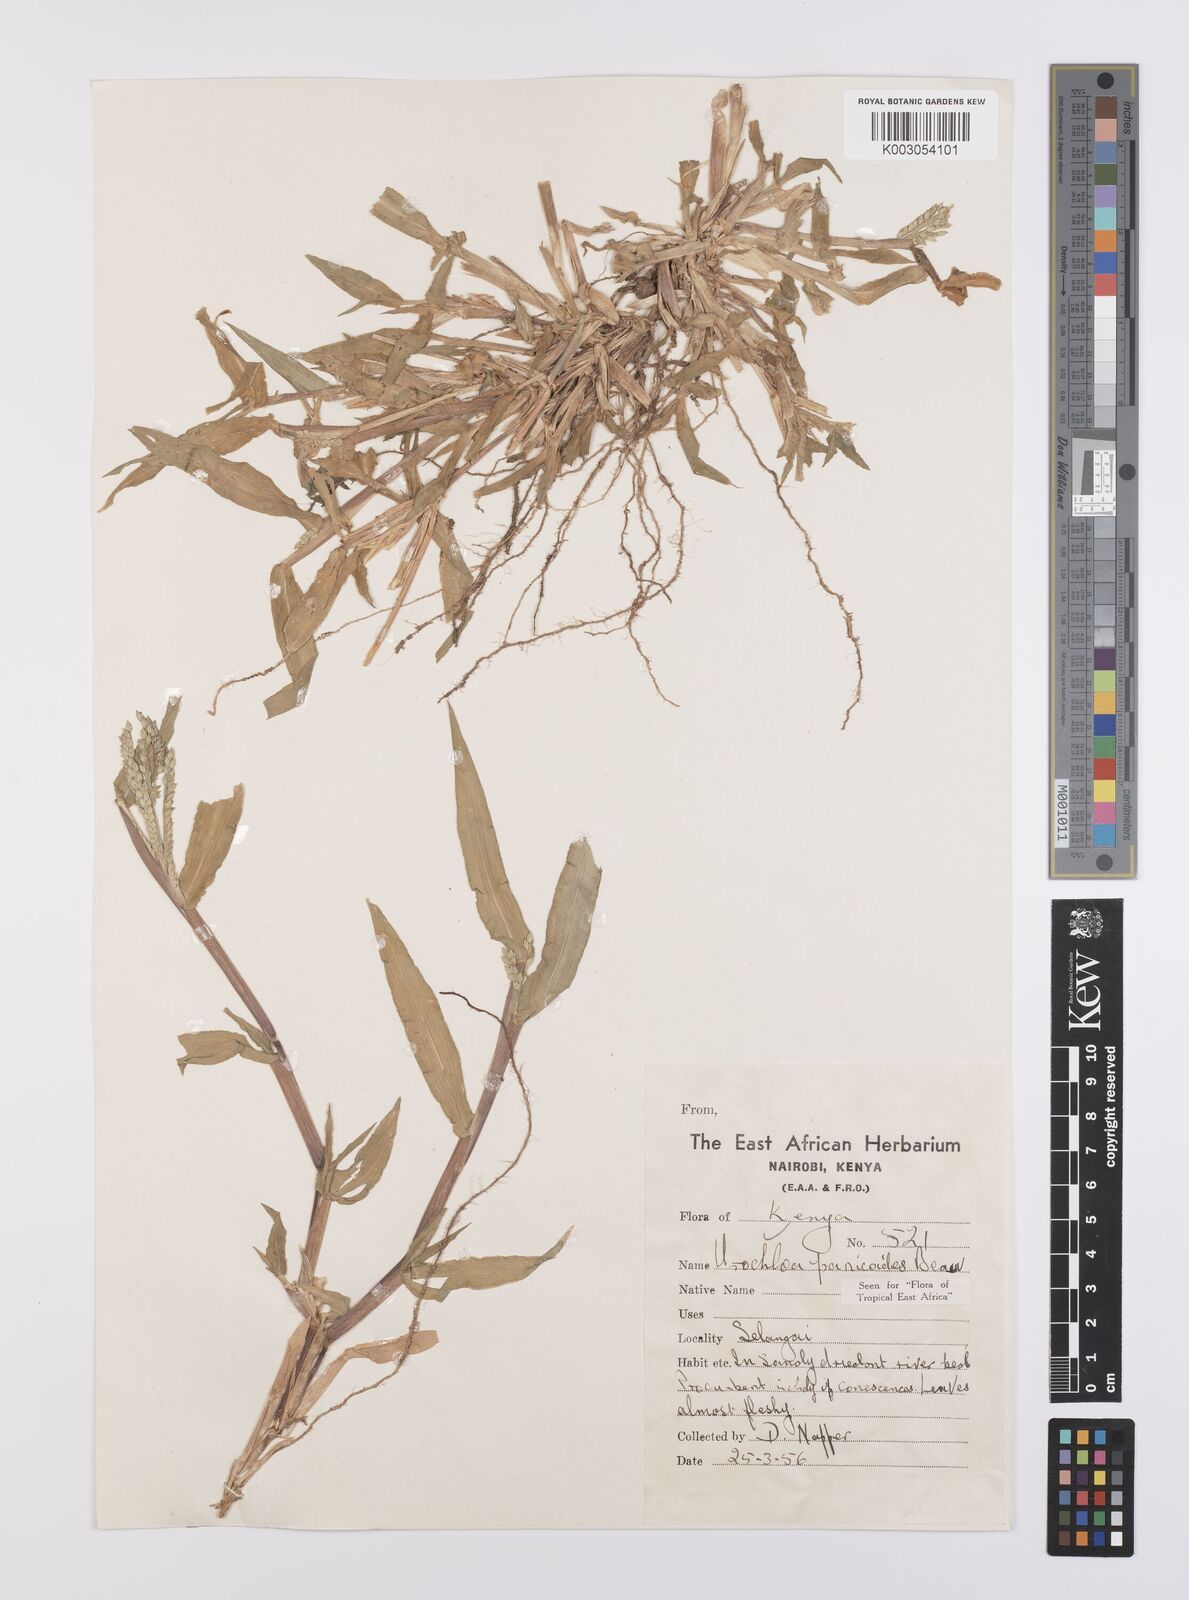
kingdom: Plantae
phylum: Tracheophyta
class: Liliopsida
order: Poales
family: Poaceae
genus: Urochloa
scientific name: Urochloa panicoides
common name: Sharp-flowered signal-grass
